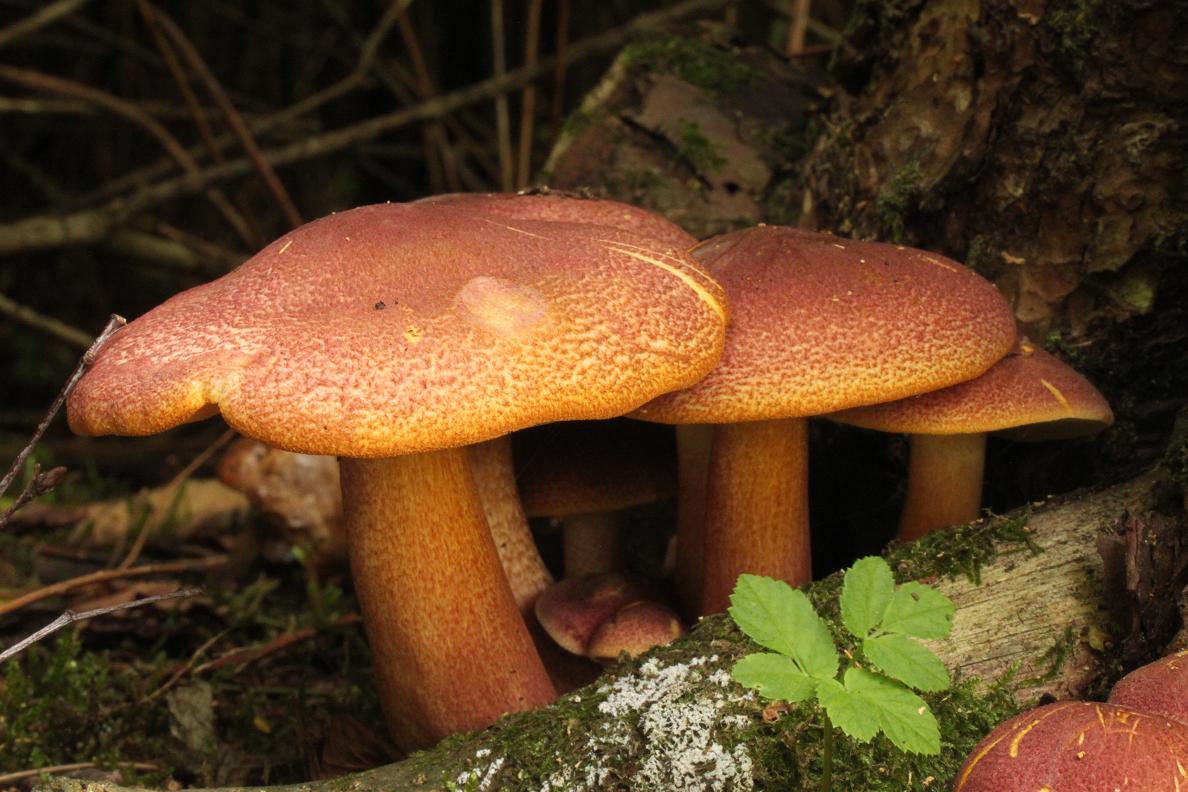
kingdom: Fungi
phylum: Basidiomycota
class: Agaricomycetes
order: Agaricales
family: Tricholomataceae
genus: Tricholomopsis
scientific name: Tricholomopsis rutilans
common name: purpur-væbnerhat
